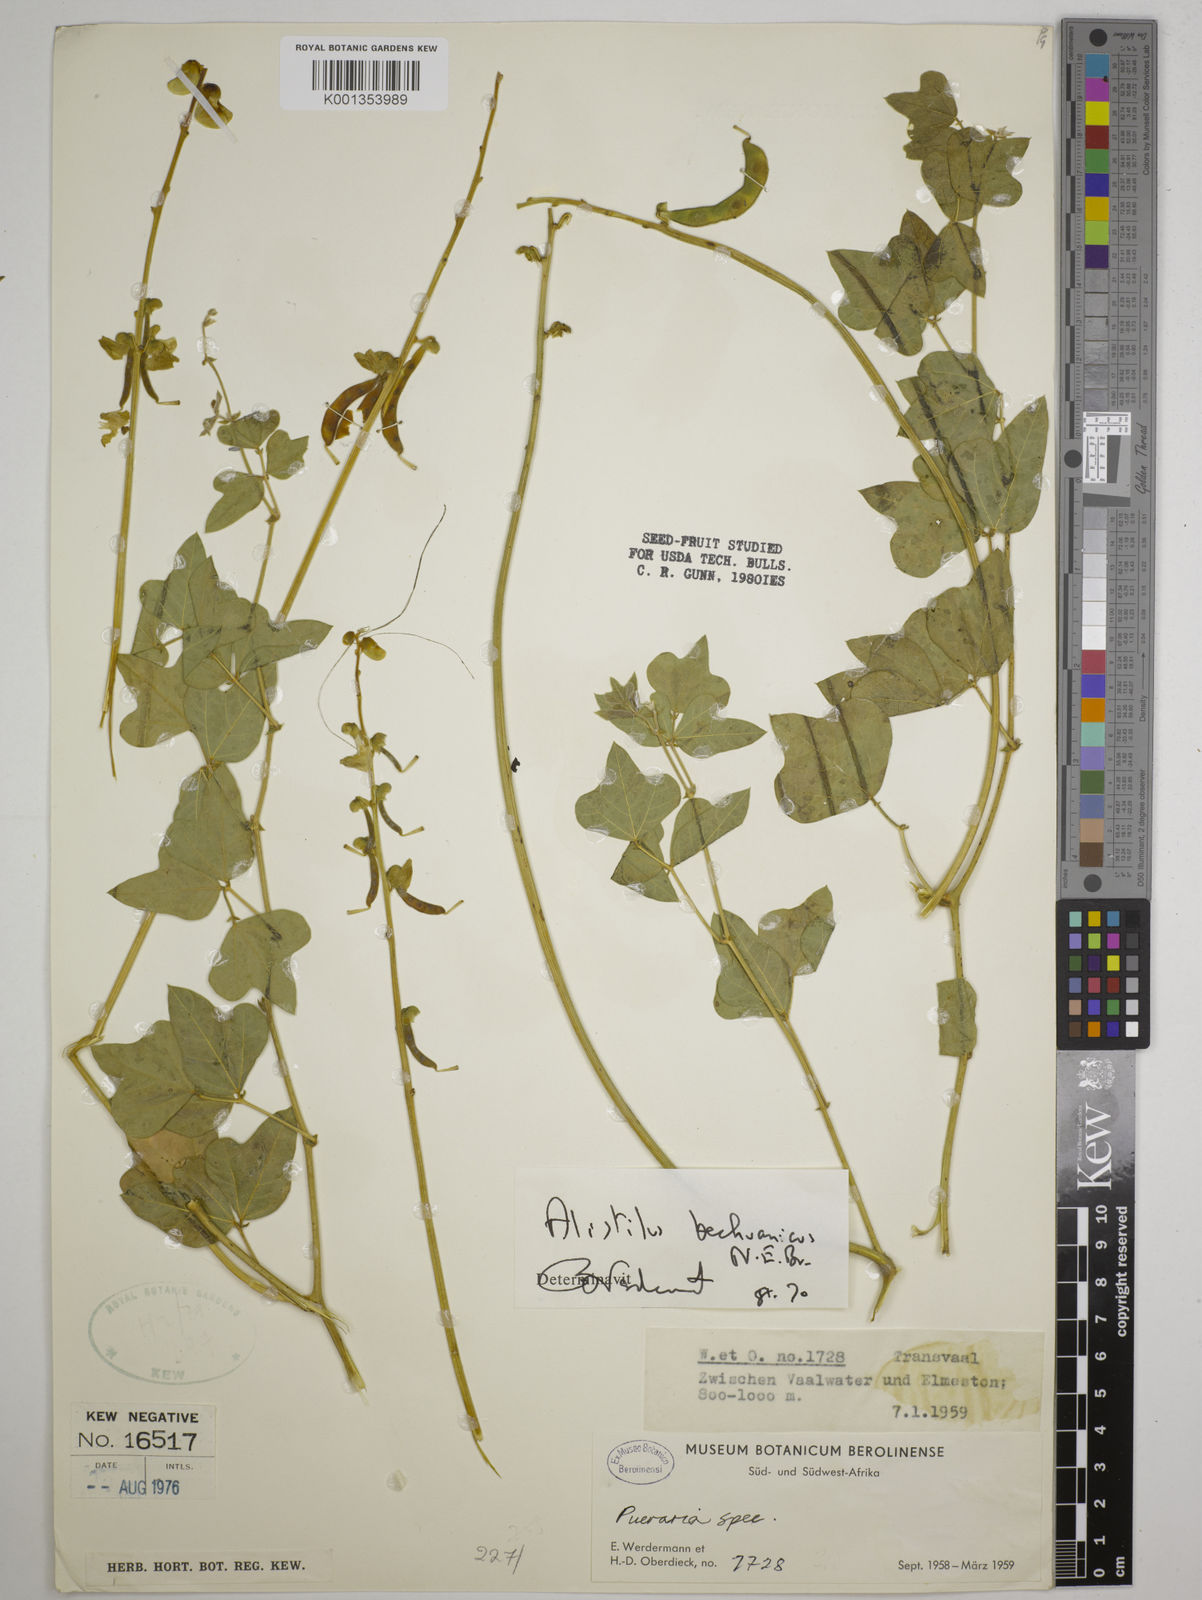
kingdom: Plantae
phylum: Tracheophyta
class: Magnoliopsida
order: Fabales
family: Fabaceae
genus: Alistilus
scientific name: Alistilus bechuanicus
